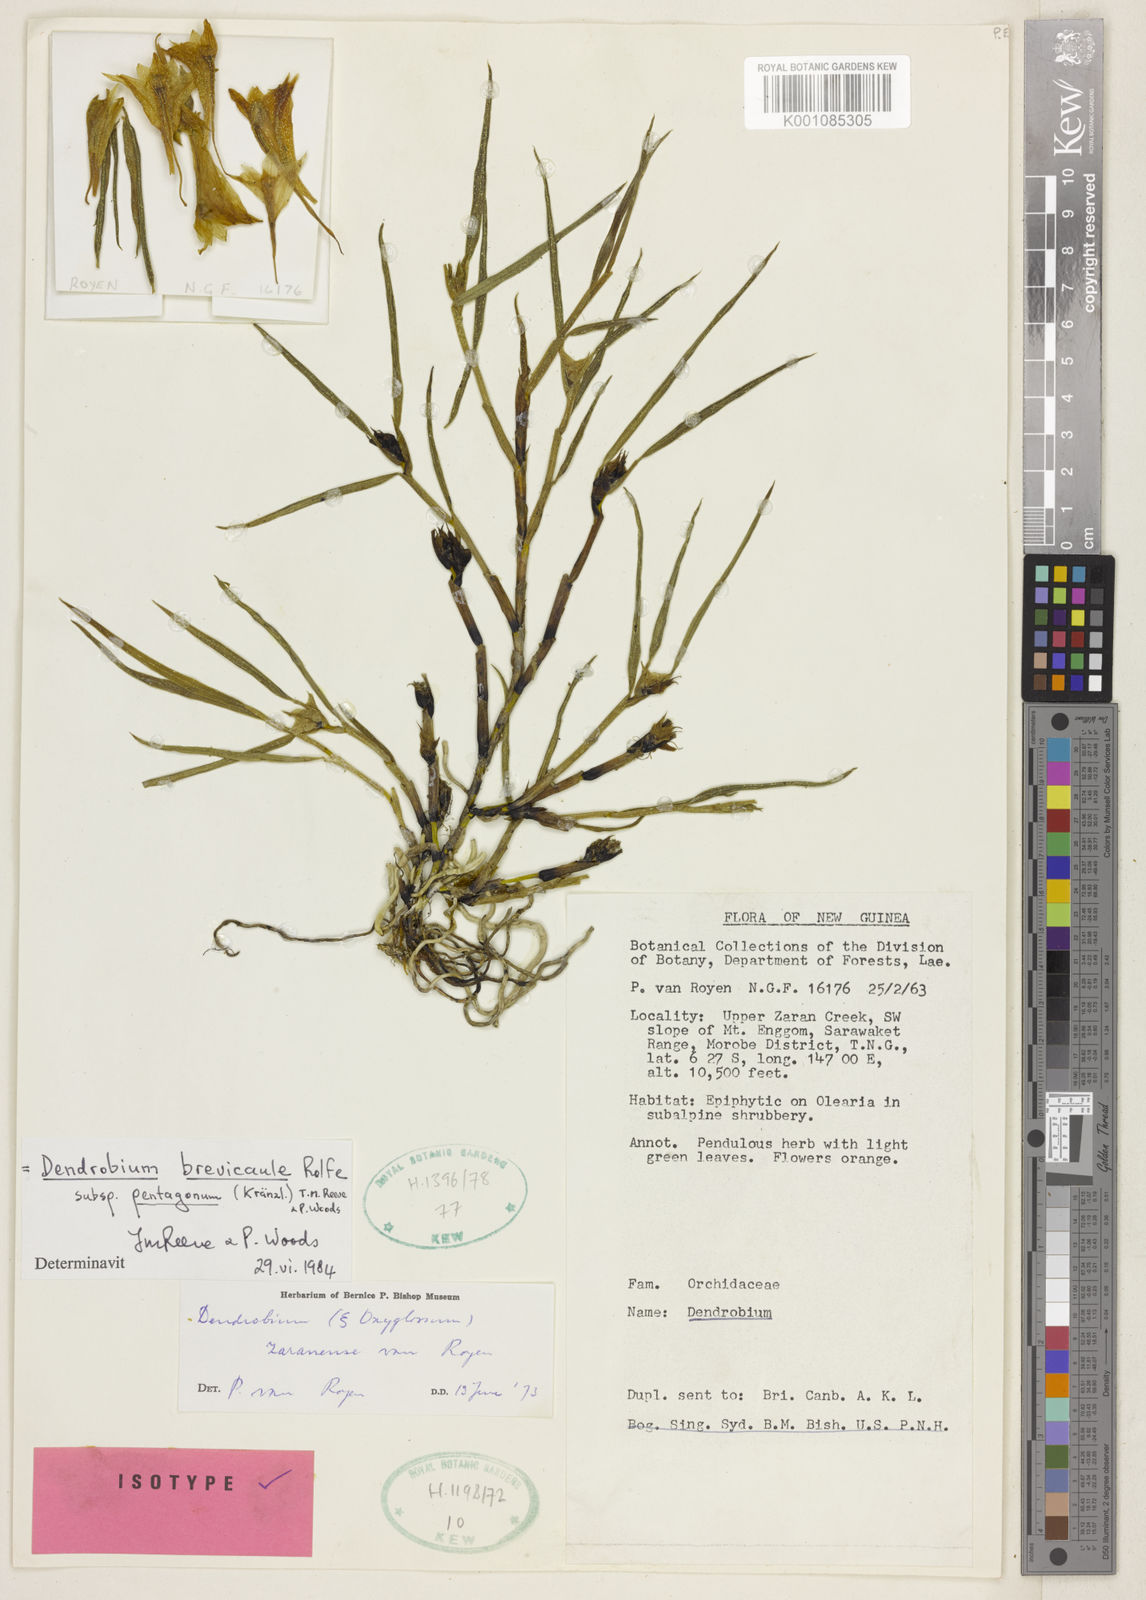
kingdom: Plantae
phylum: Tracheophyta
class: Liliopsida
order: Asparagales
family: Orchidaceae
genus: Dendrobium
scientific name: Dendrobium brevicaule
